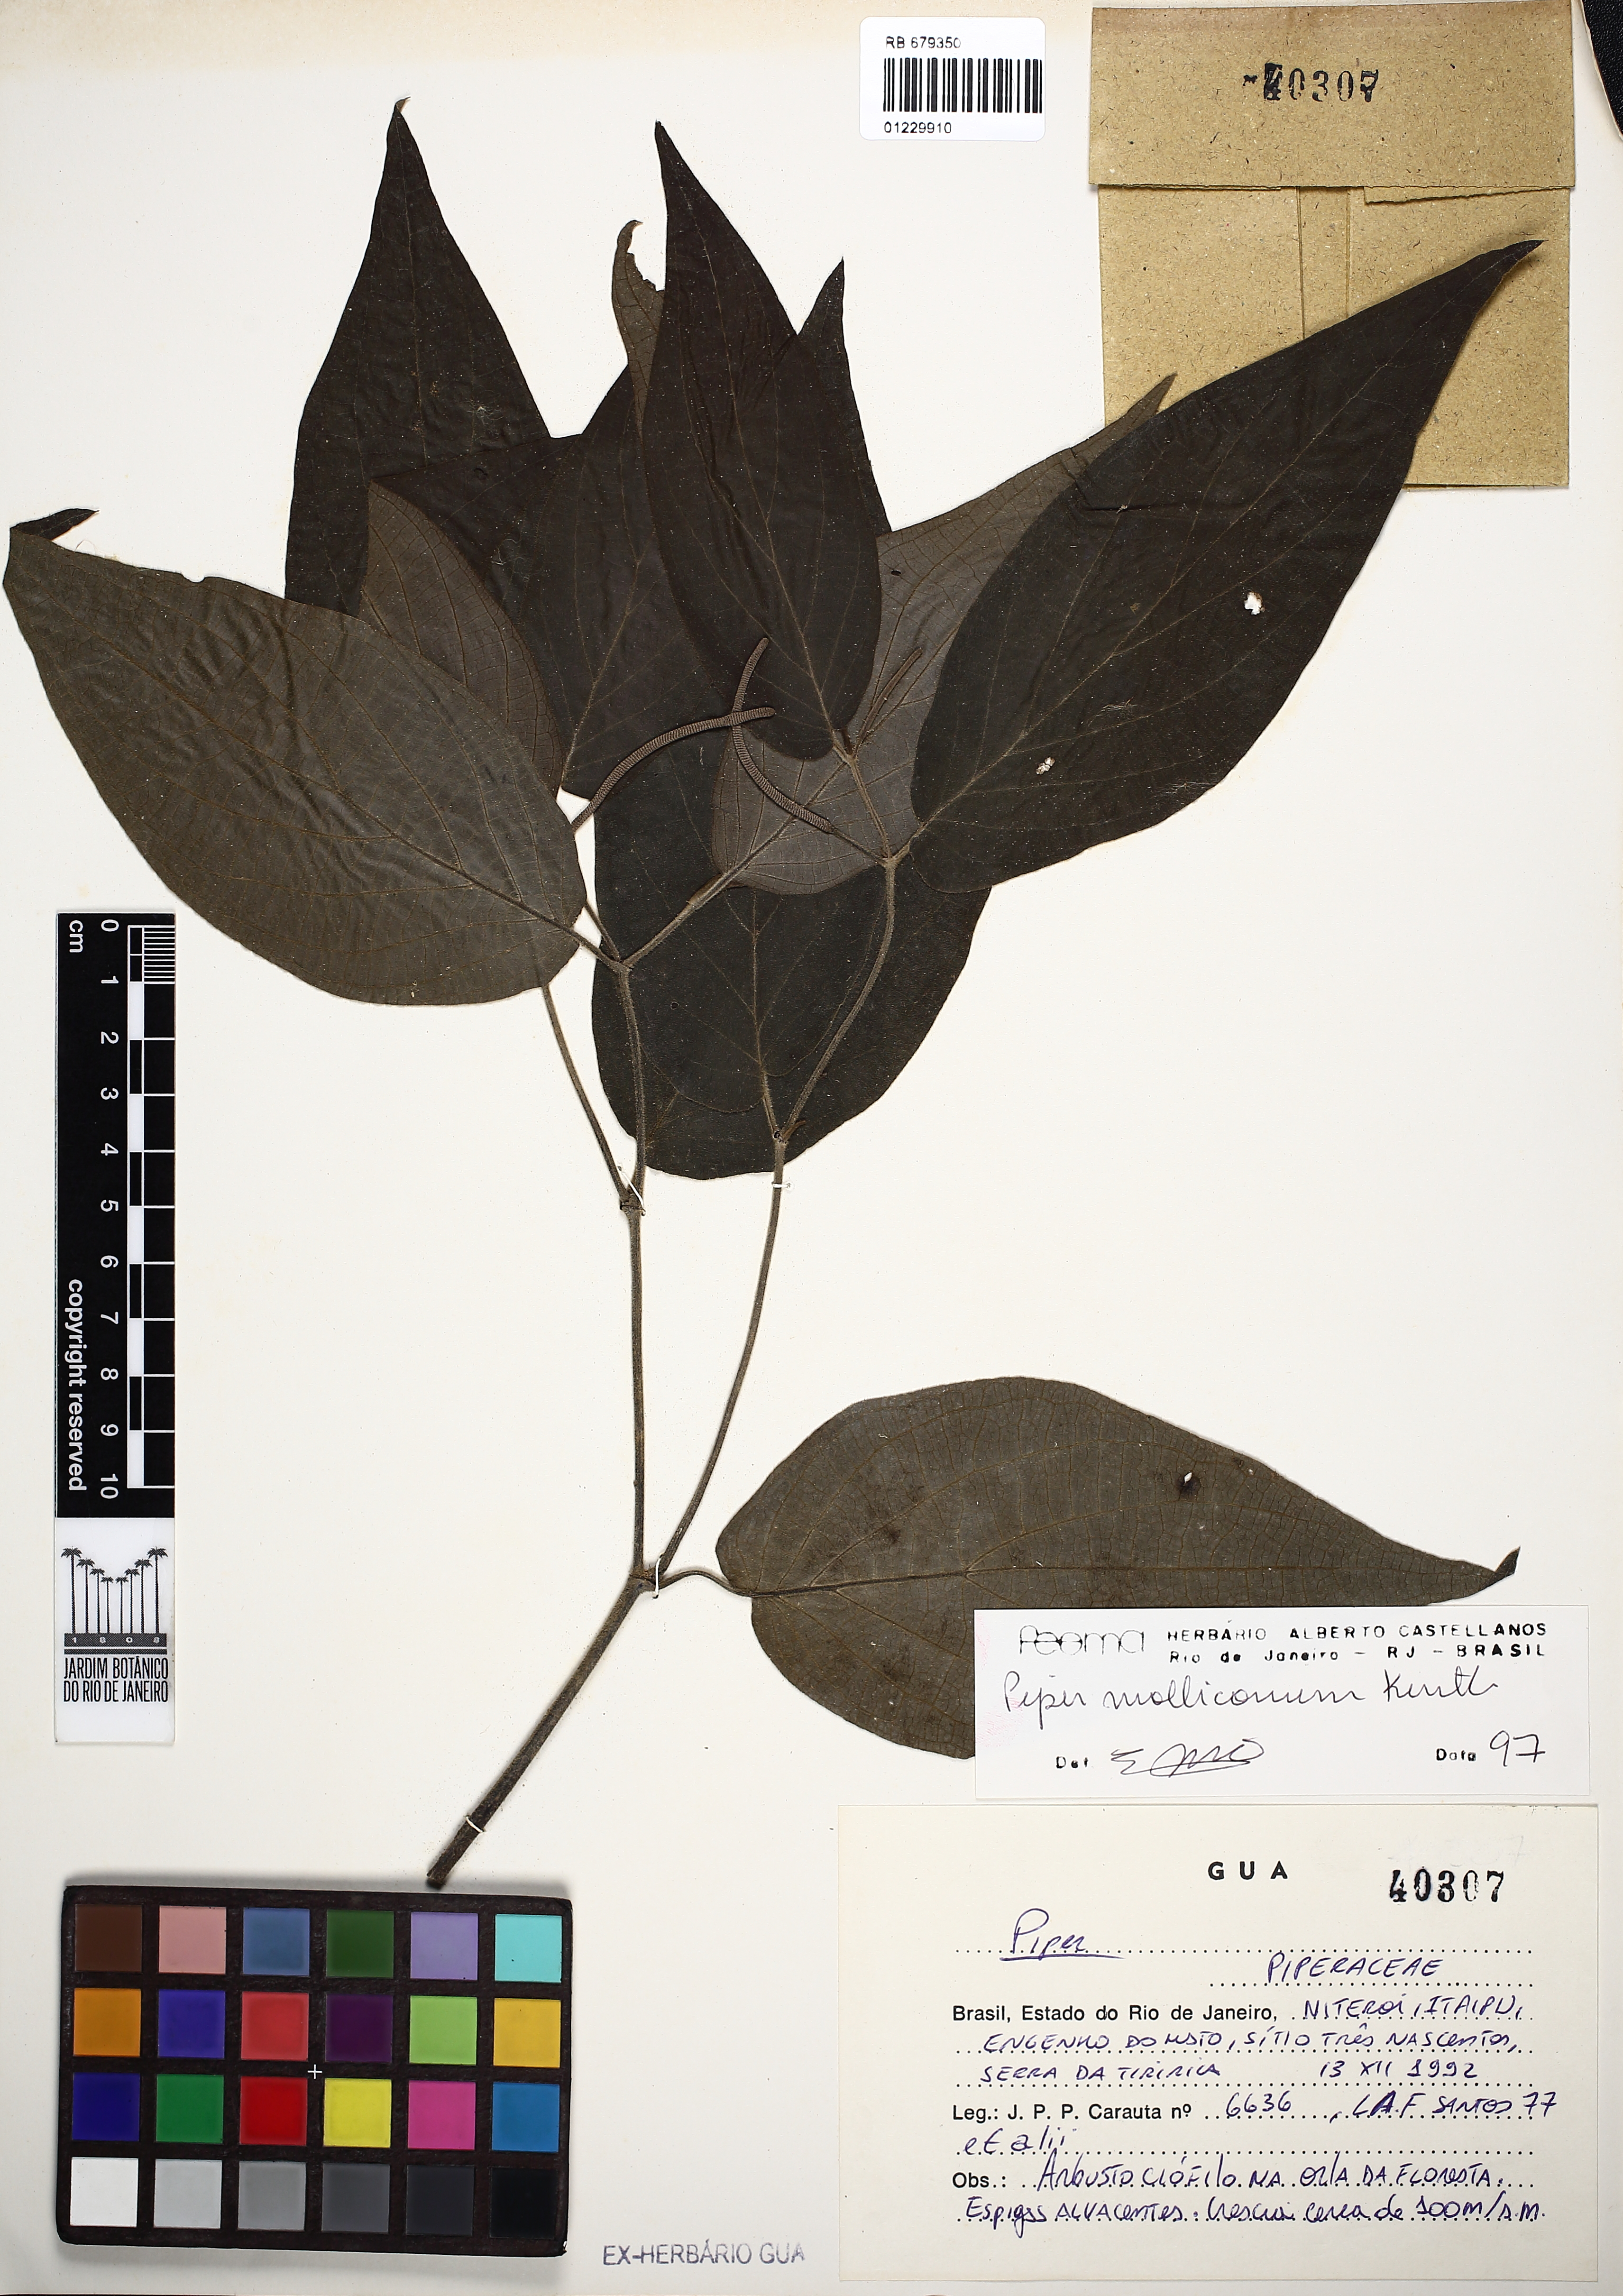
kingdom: Plantae
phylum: Tracheophyta
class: Magnoliopsida
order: Piperales
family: Piperaceae
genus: Piper
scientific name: Piper mollicomum
